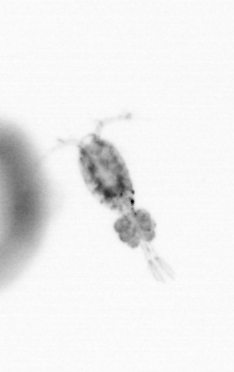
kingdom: Animalia
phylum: Arthropoda
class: Copepoda
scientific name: Copepoda
